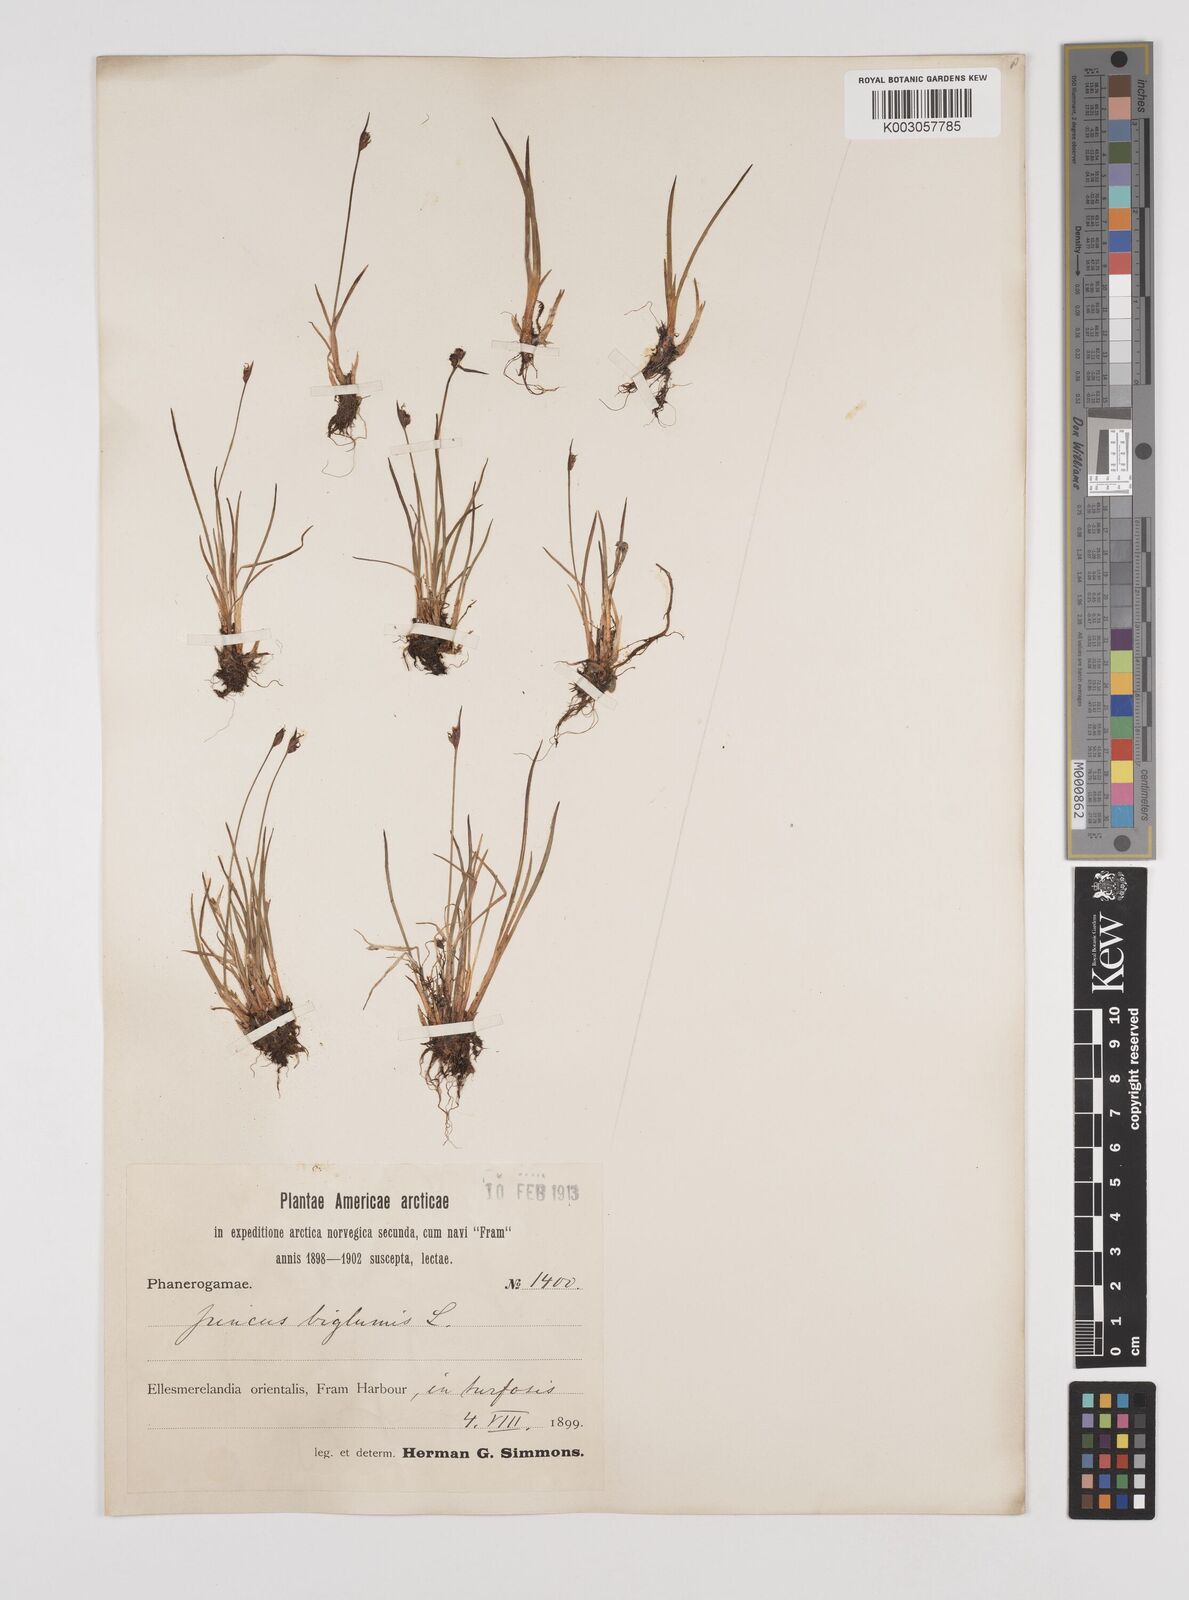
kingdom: Plantae
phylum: Tracheophyta
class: Liliopsida
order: Poales
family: Juncaceae
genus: Juncus
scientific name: Juncus biglumis
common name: Two-flowered rush
